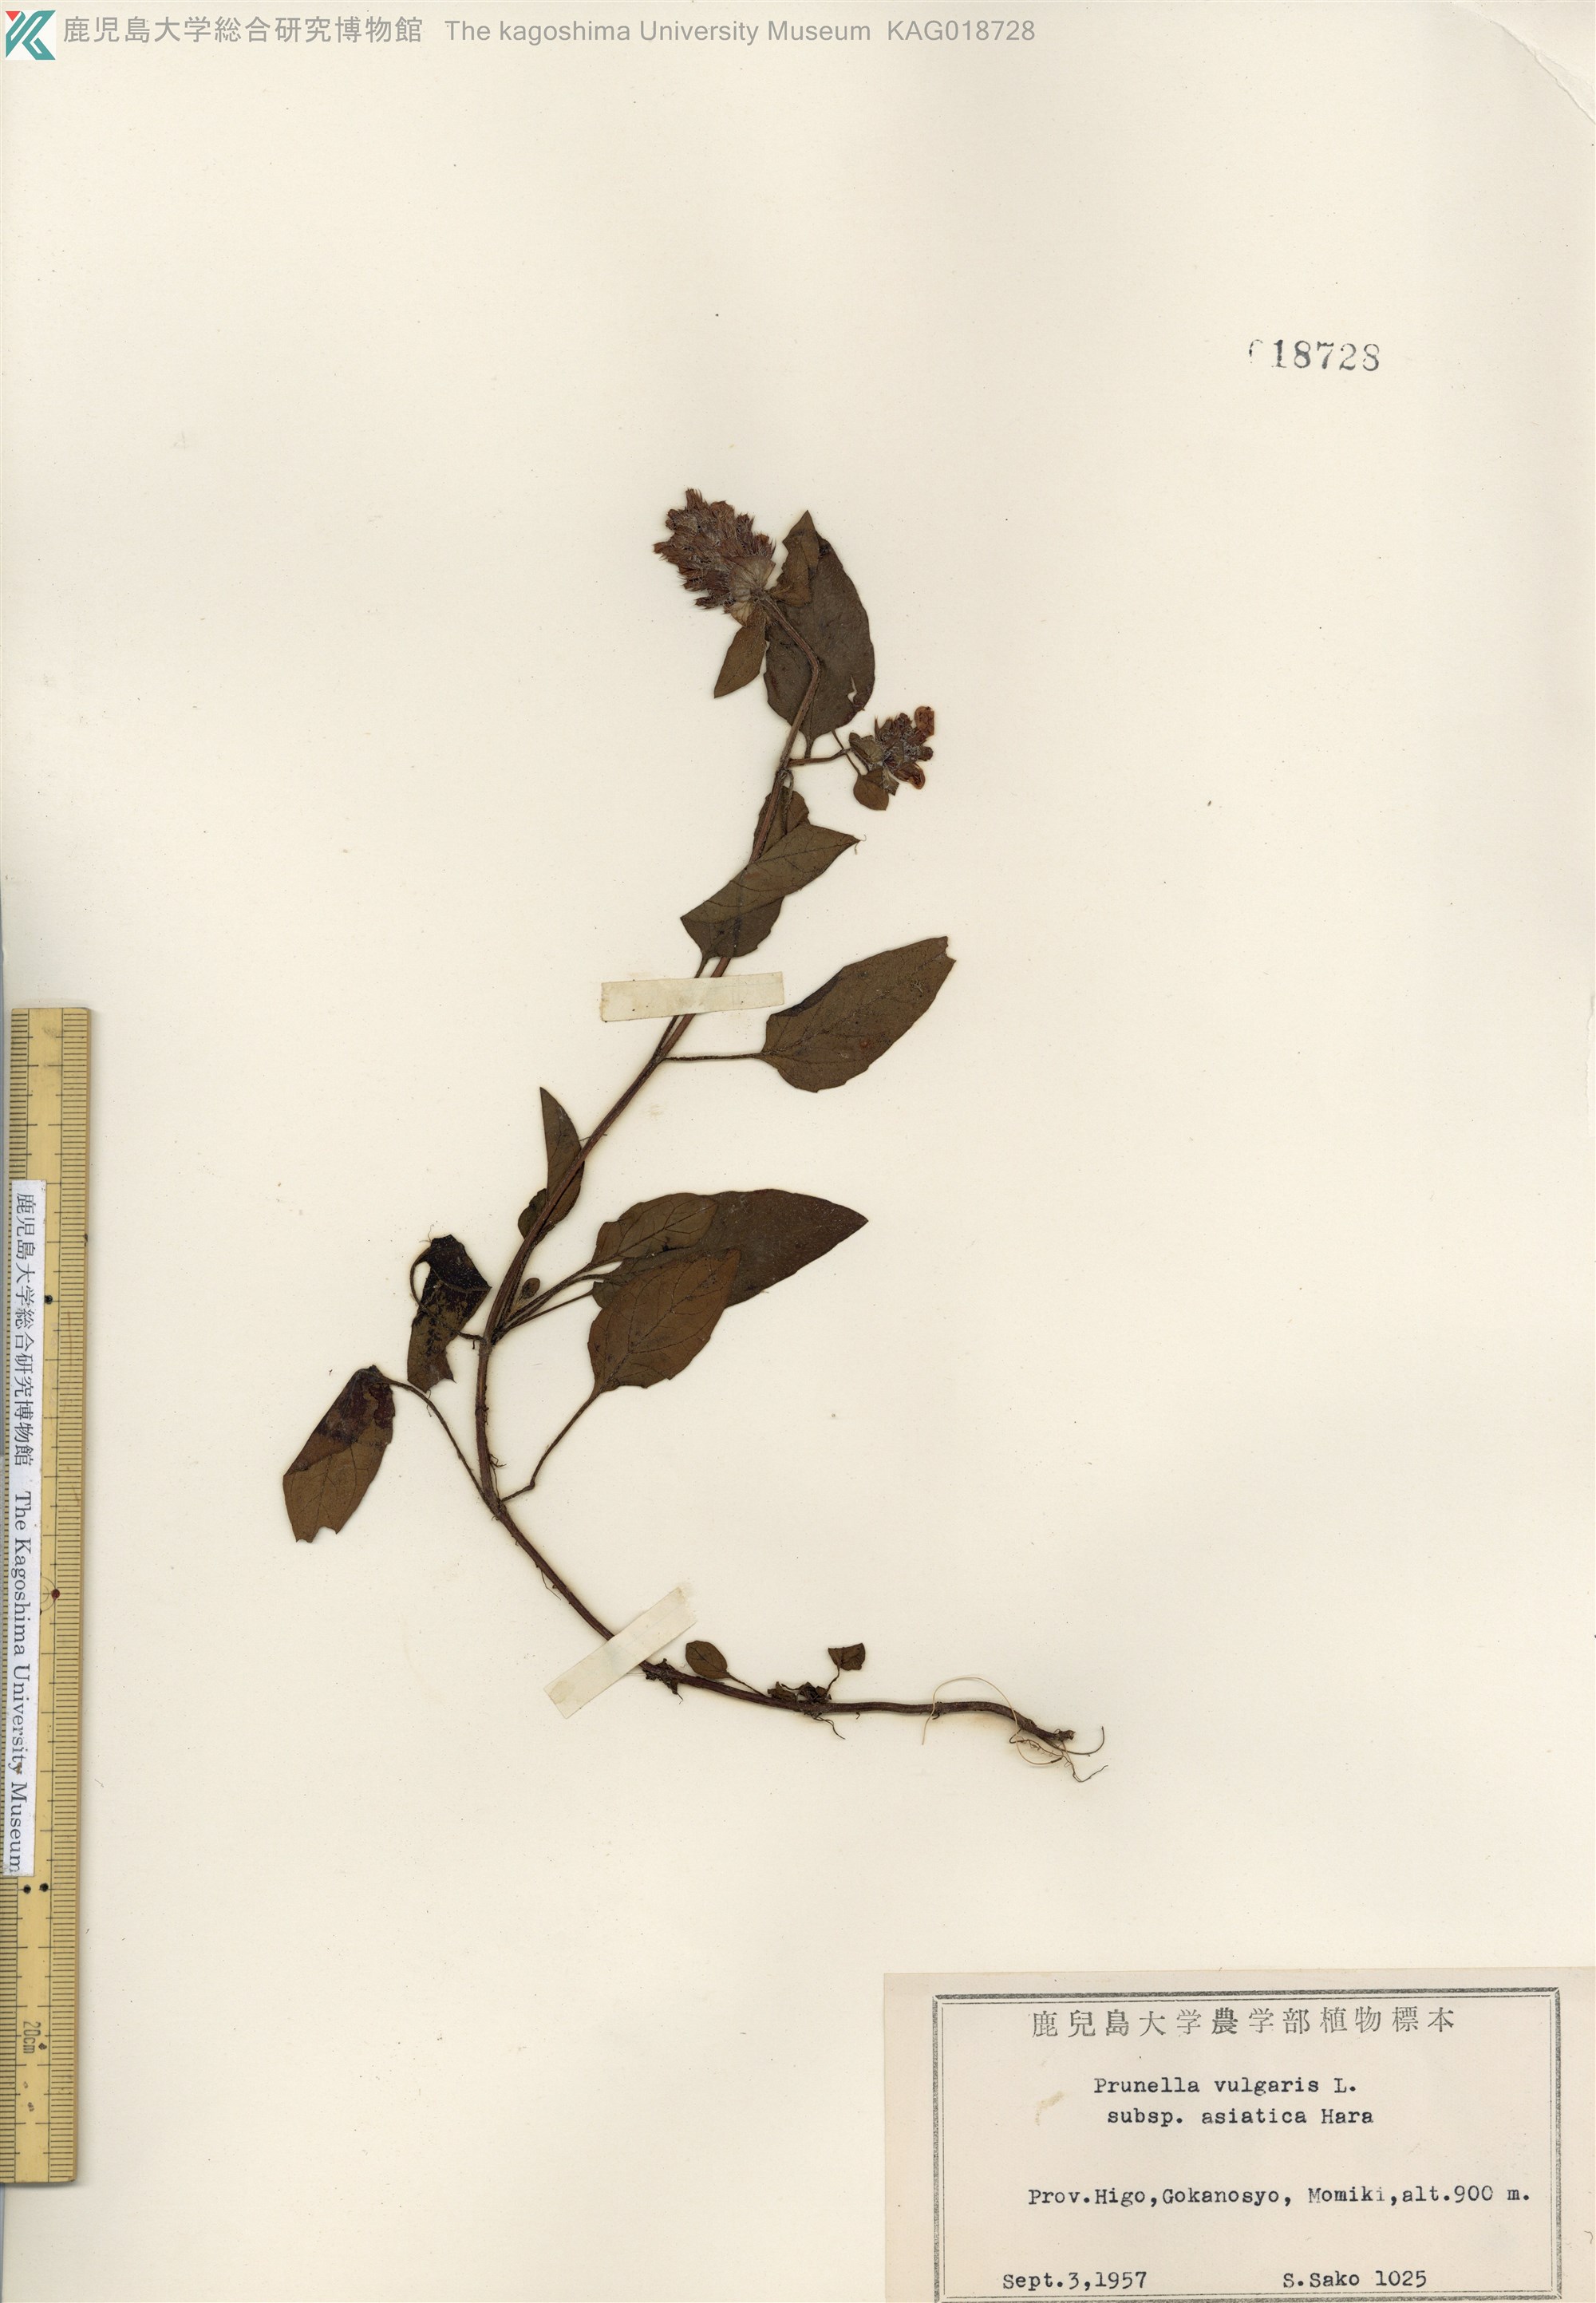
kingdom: Plantae
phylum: Tracheophyta
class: Magnoliopsida
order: Lamiales
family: Lamiaceae
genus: Prunella
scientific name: Prunella vulgaris
